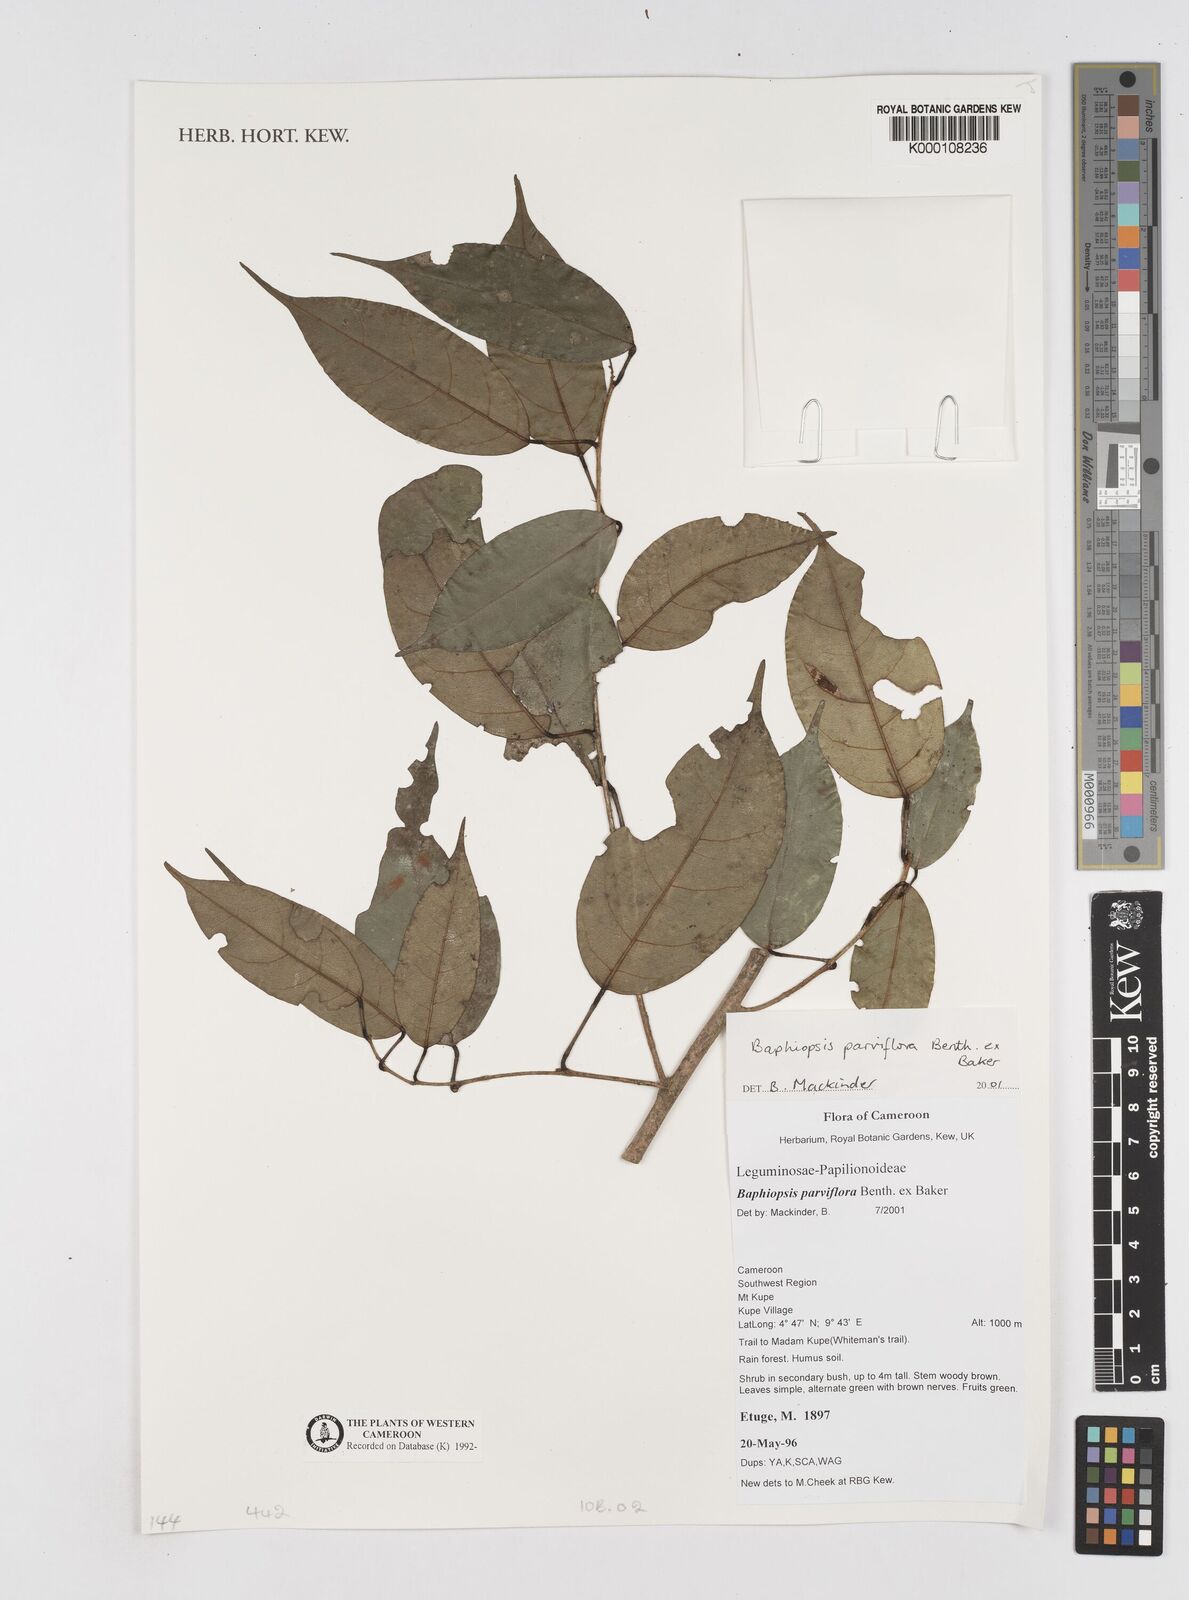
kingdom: Plantae
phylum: Tracheophyta
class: Magnoliopsida
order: Fabales
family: Fabaceae
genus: Baphiopsis
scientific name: Baphiopsis parviflora
